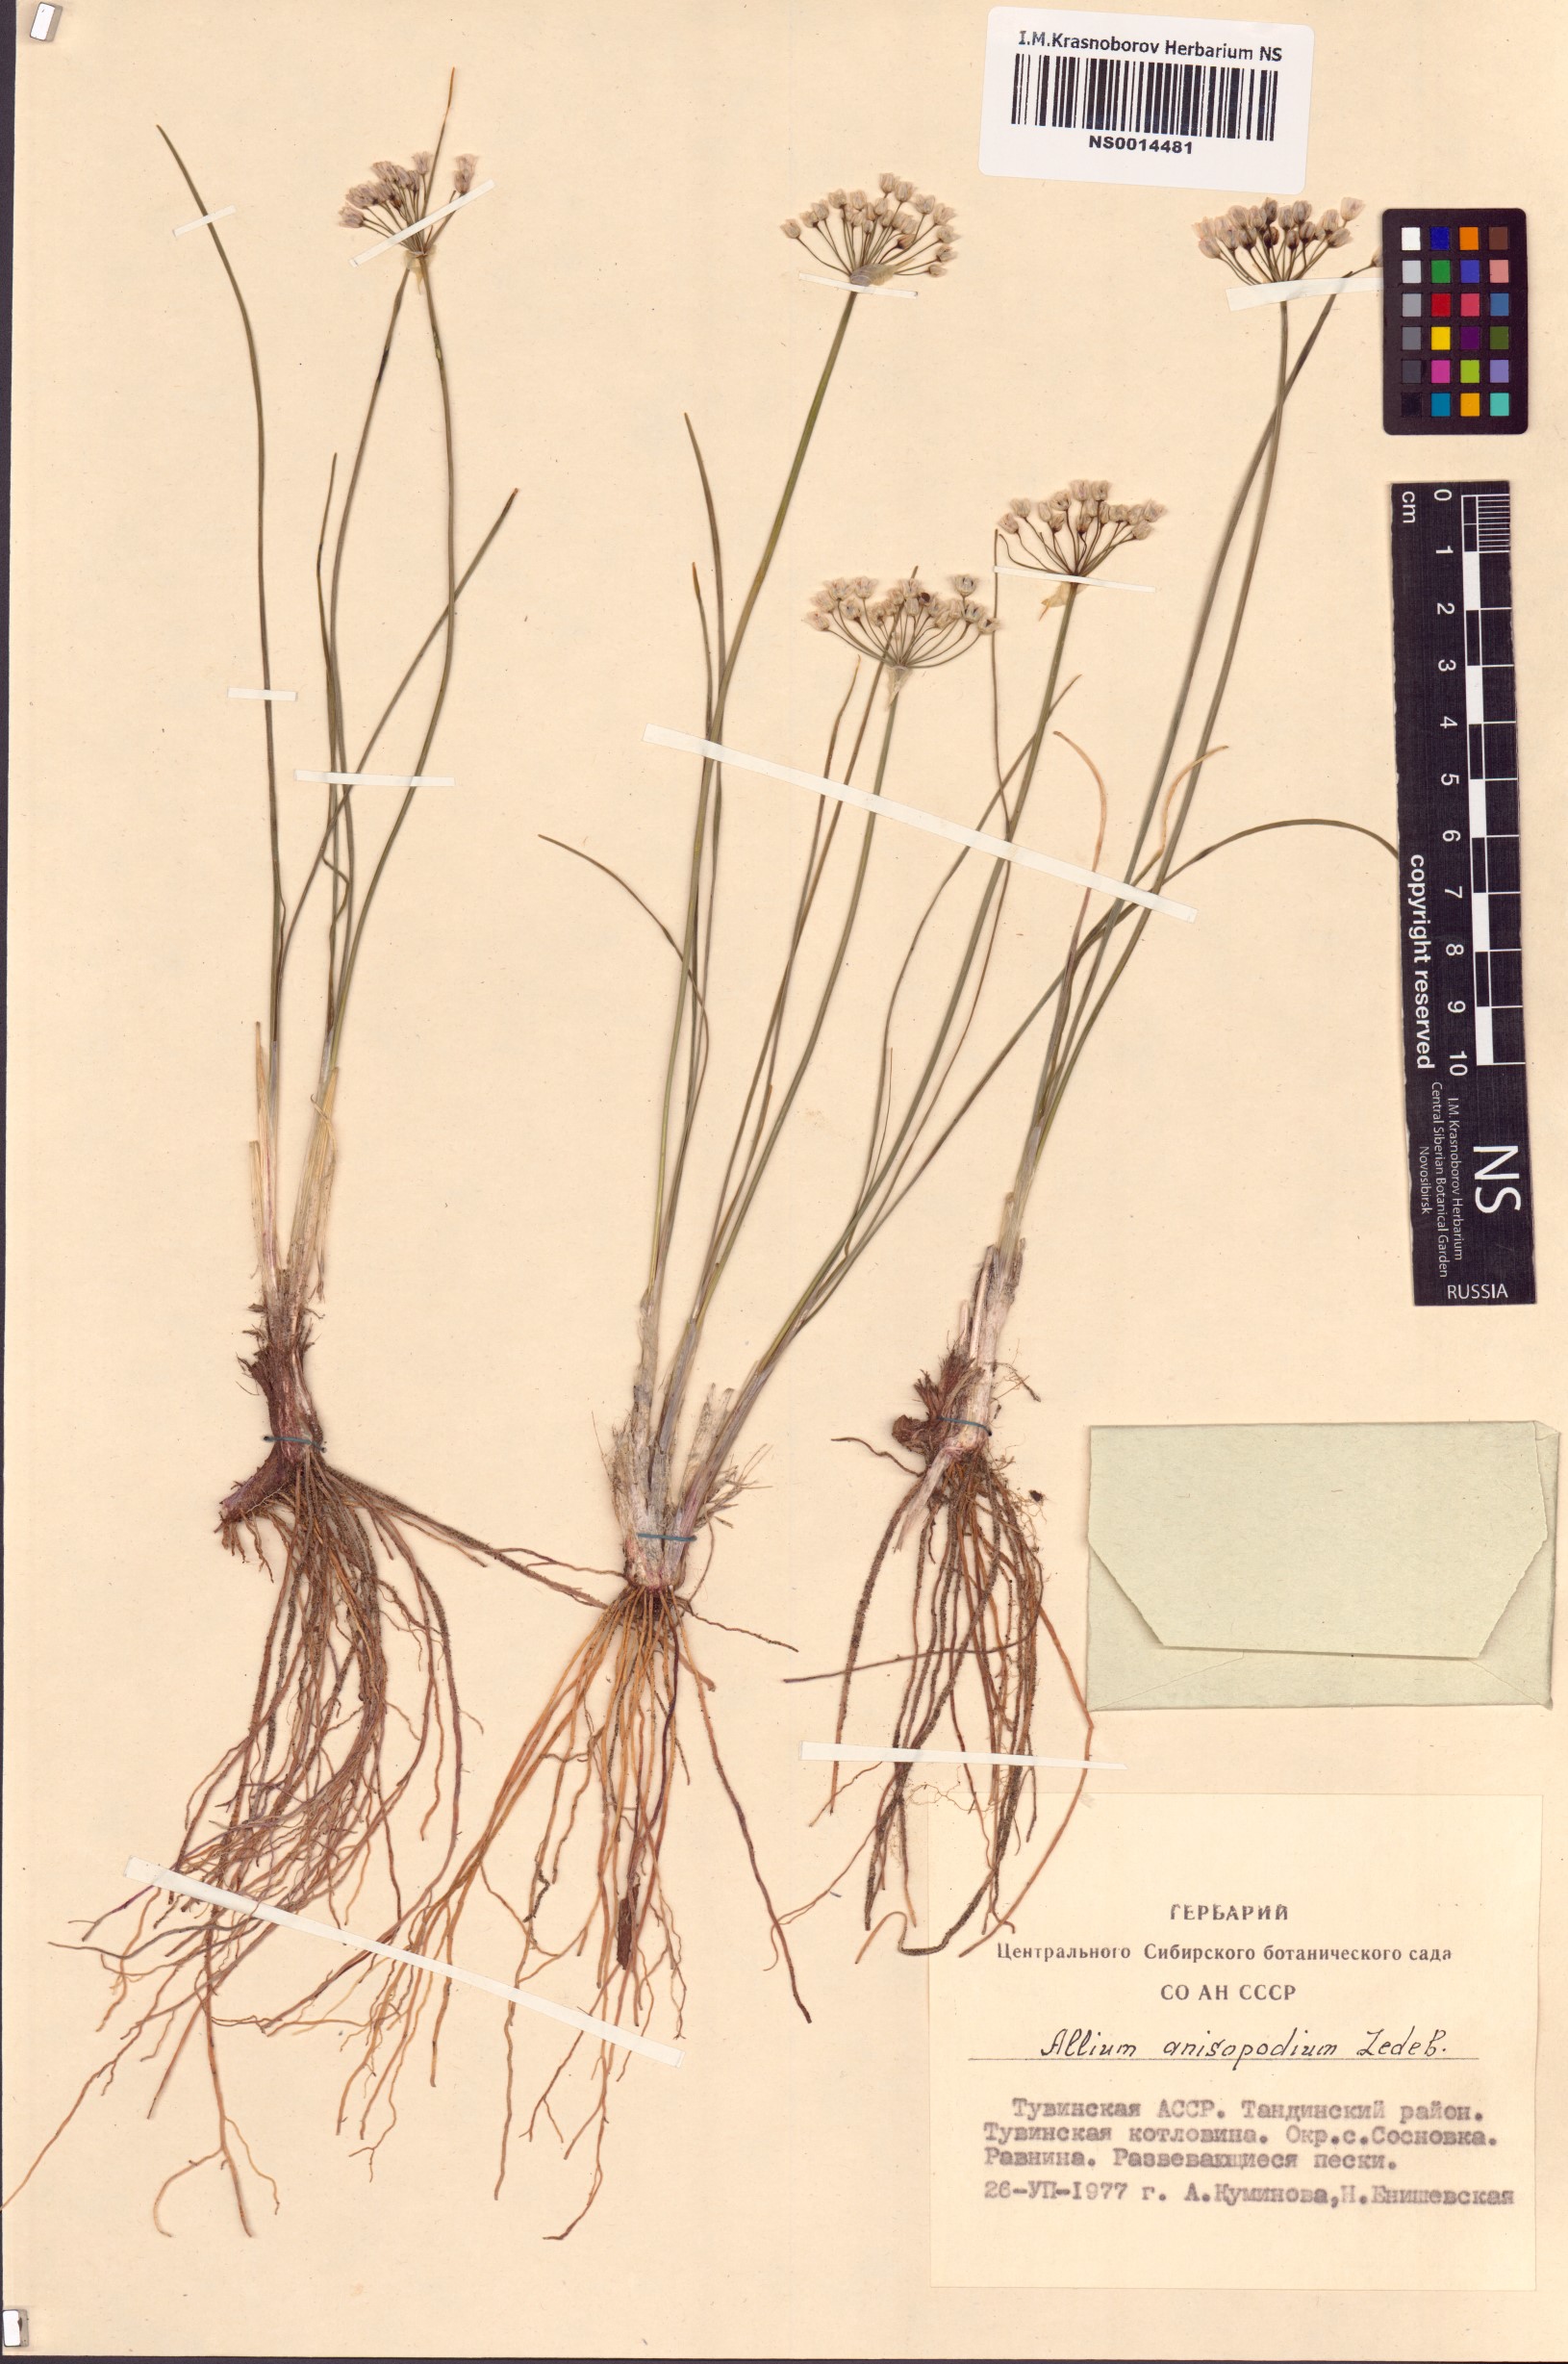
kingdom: Plantae
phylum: Tracheophyta
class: Liliopsida
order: Asparagales
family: Amaryllidaceae
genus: Allium
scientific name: Allium anisopodium
